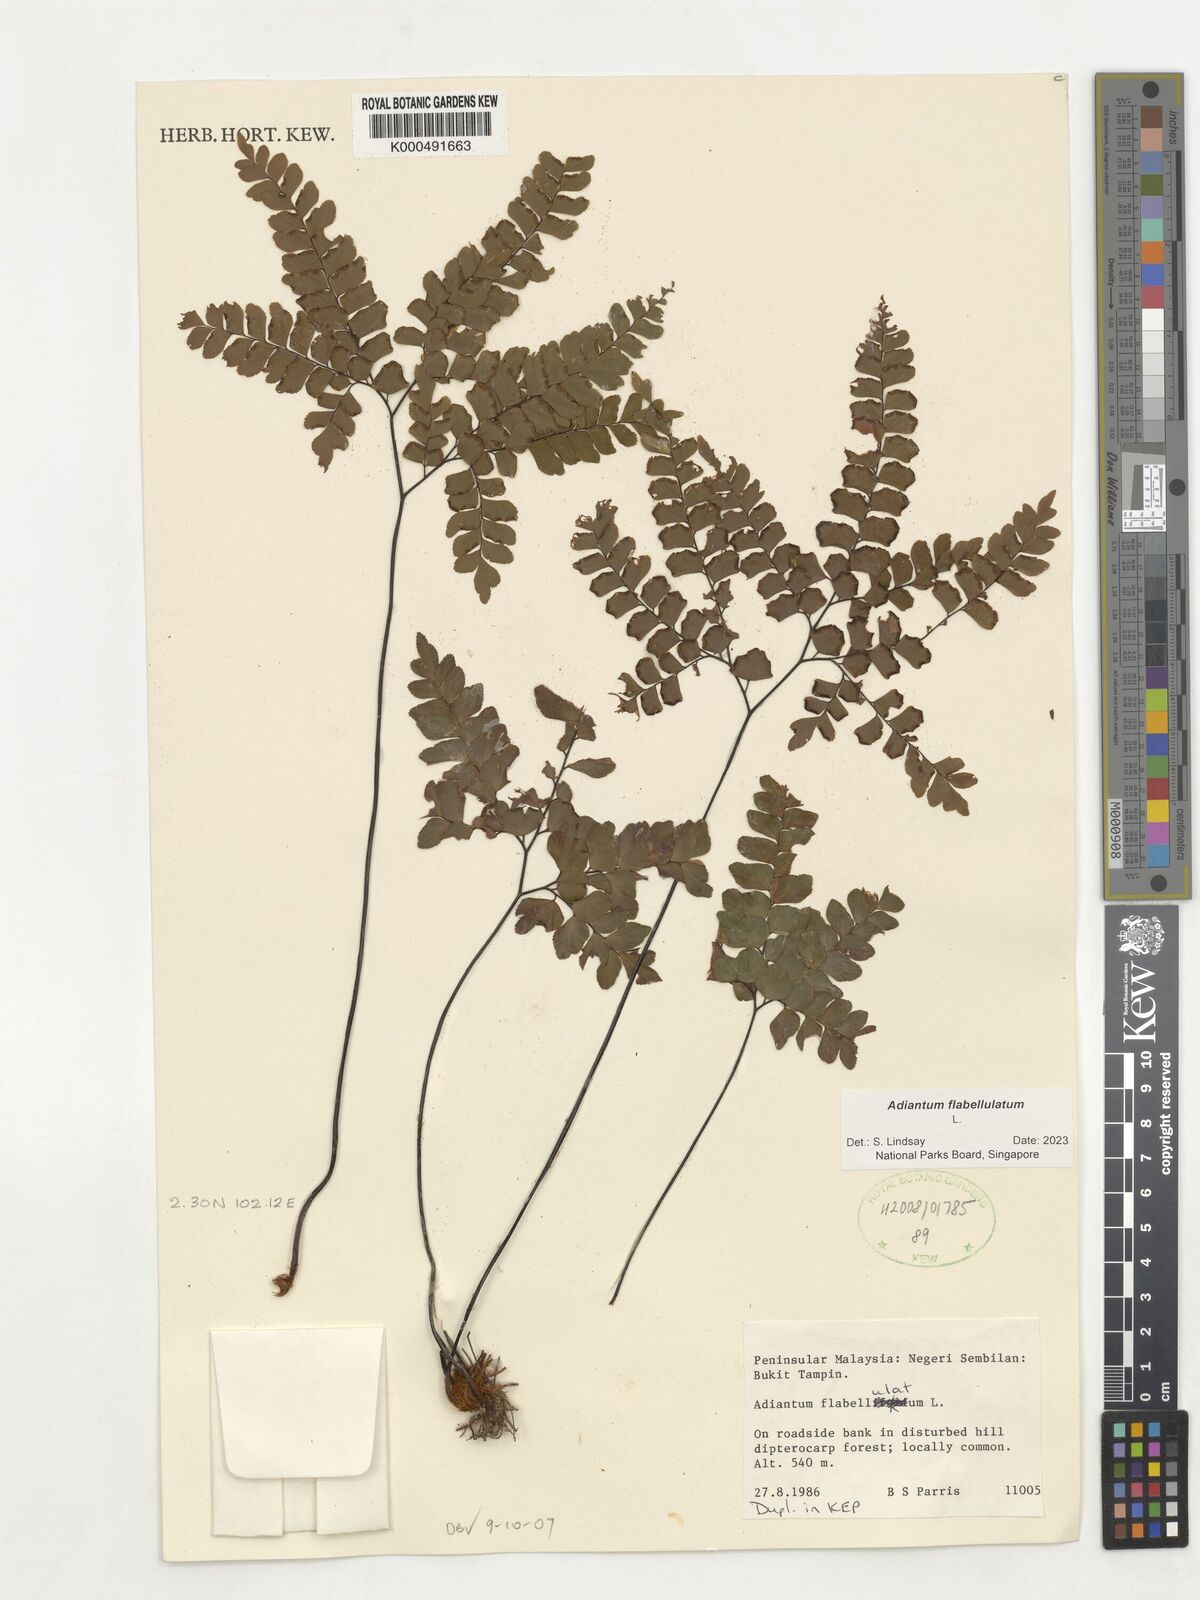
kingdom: Plantae
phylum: Tracheophyta
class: Polypodiopsida
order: Polypodiales
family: Pteridaceae
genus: Adiantum
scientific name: Adiantum flabellulatum
